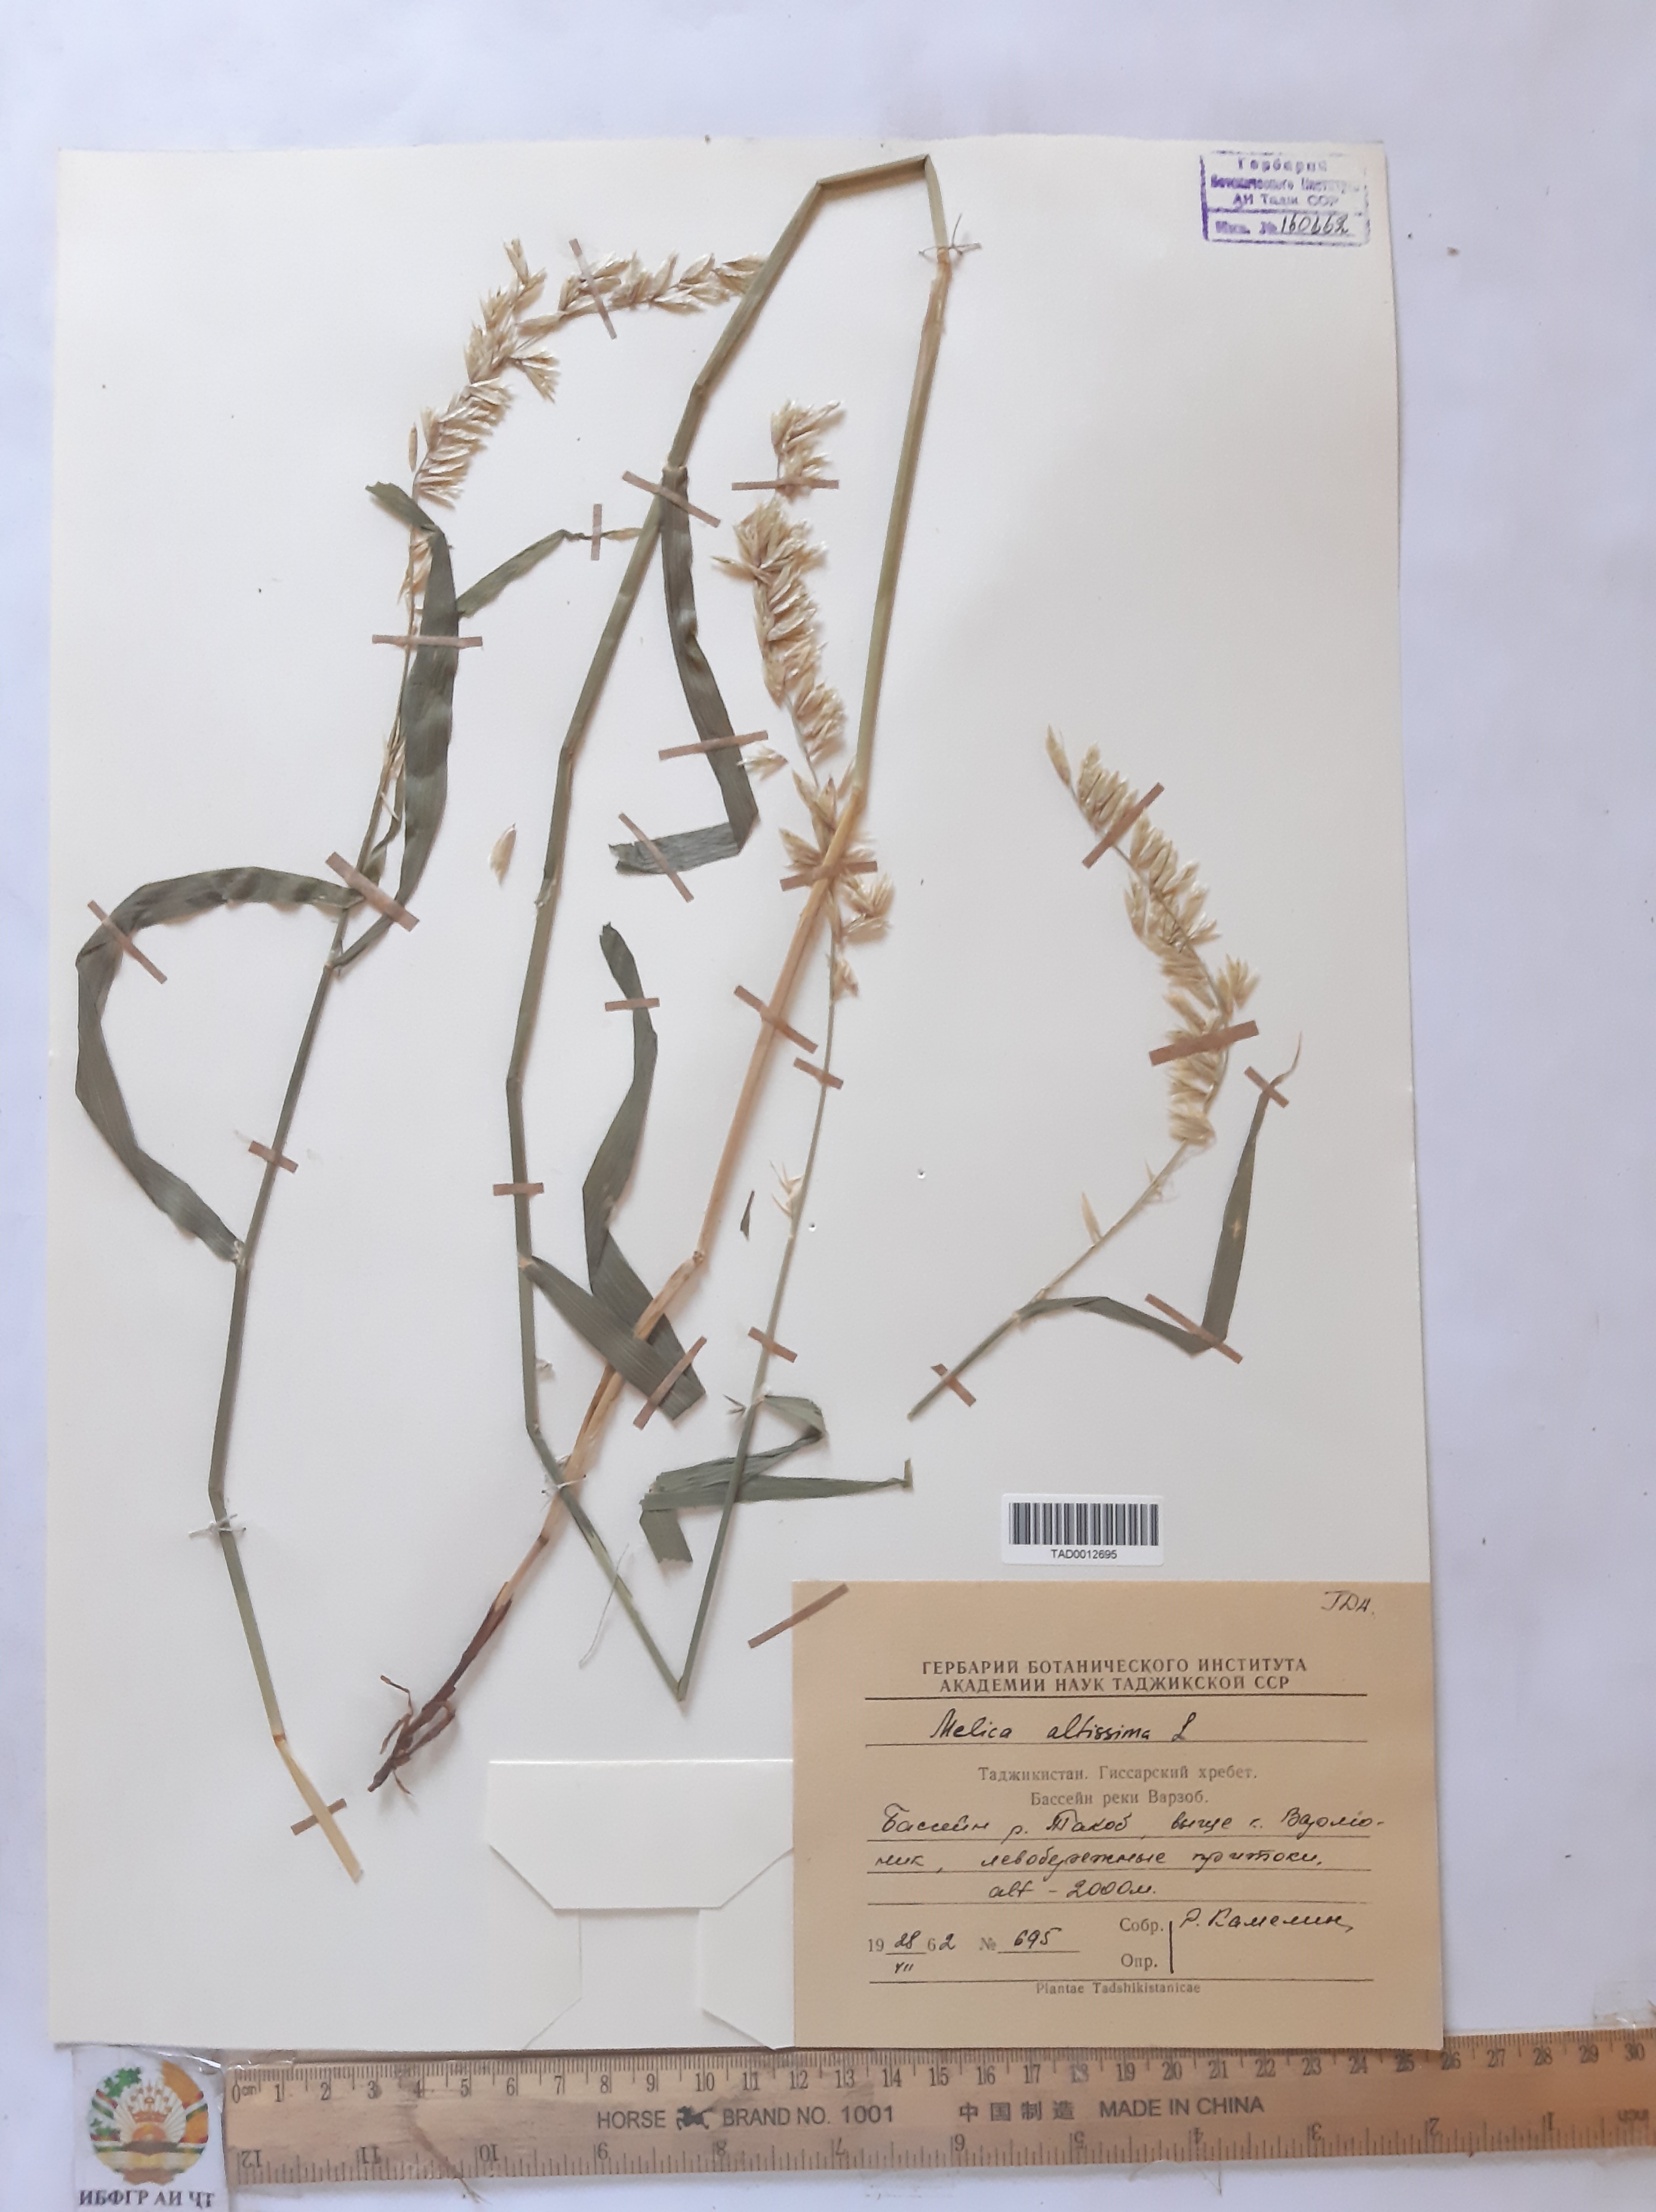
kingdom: Plantae
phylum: Tracheophyta
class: Liliopsida
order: Poales
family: Poaceae
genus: Melica
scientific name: Melica altissima
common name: Siberian melicgrass
